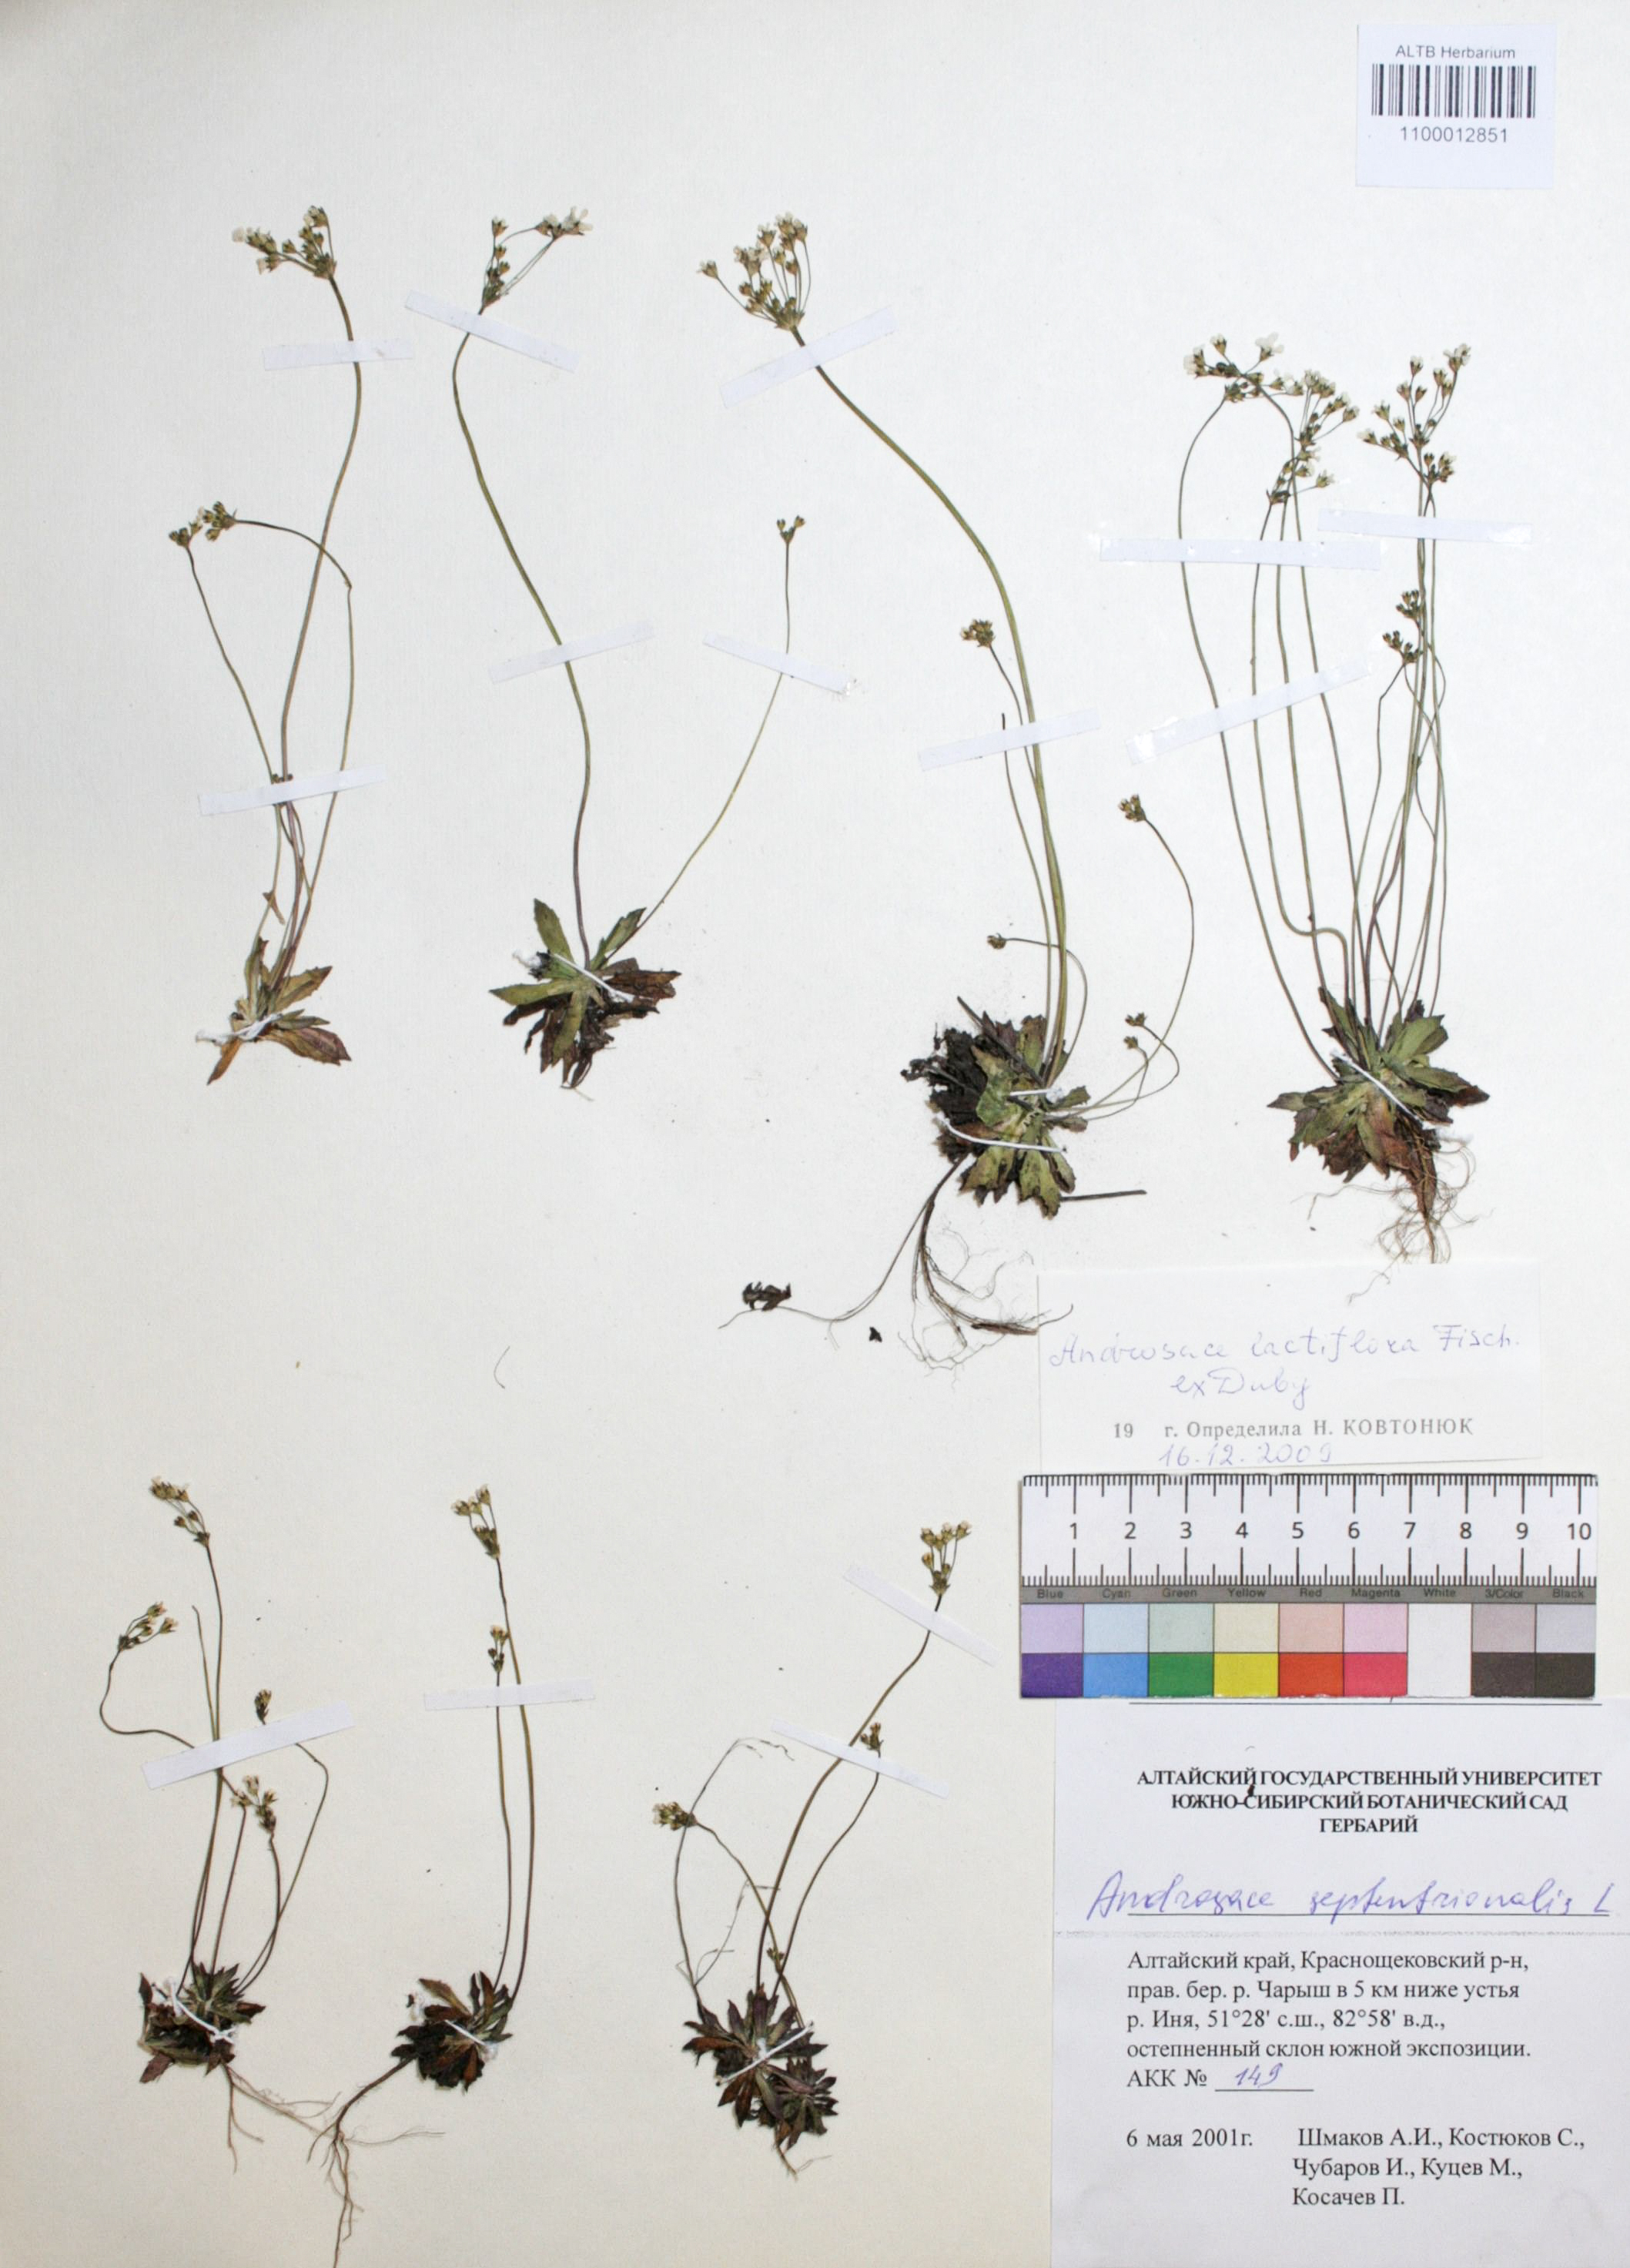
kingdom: Plantae
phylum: Tracheophyta
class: Magnoliopsida
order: Ericales
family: Primulaceae
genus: Androsace
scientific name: Androsace lactiflora
